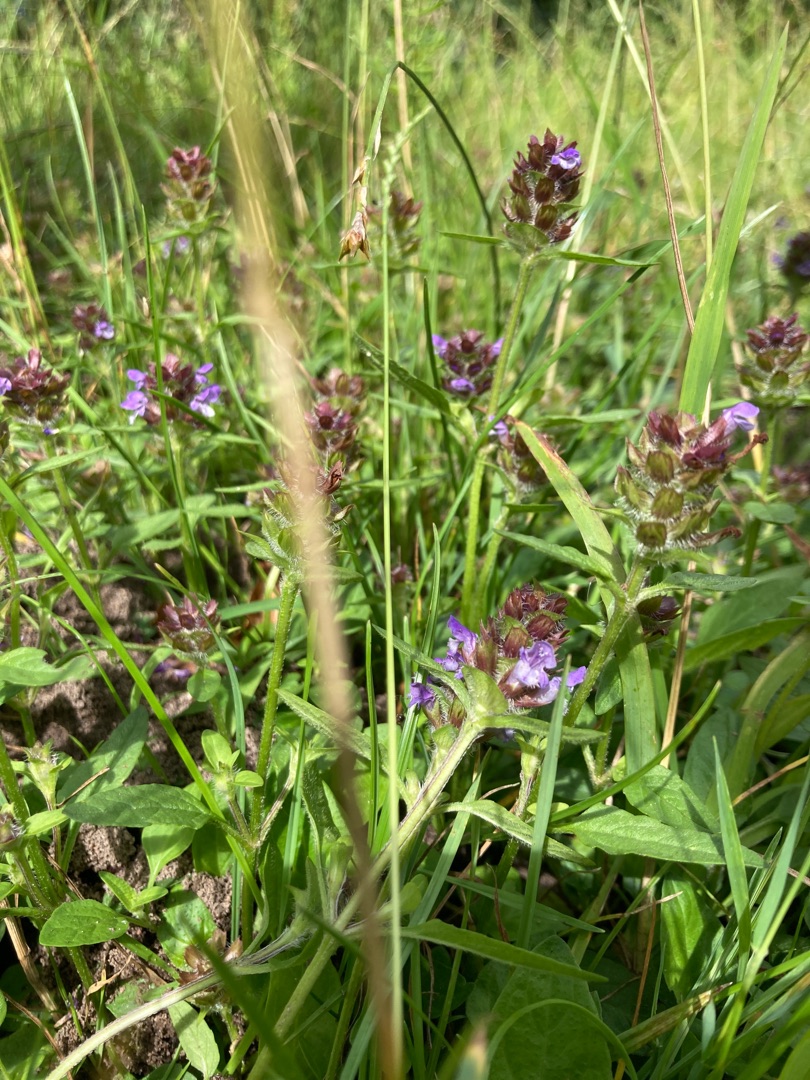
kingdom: Plantae
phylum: Tracheophyta
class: Magnoliopsida
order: Lamiales
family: Lamiaceae
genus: Prunella
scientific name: Prunella vulgaris
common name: Almindelig brunelle
